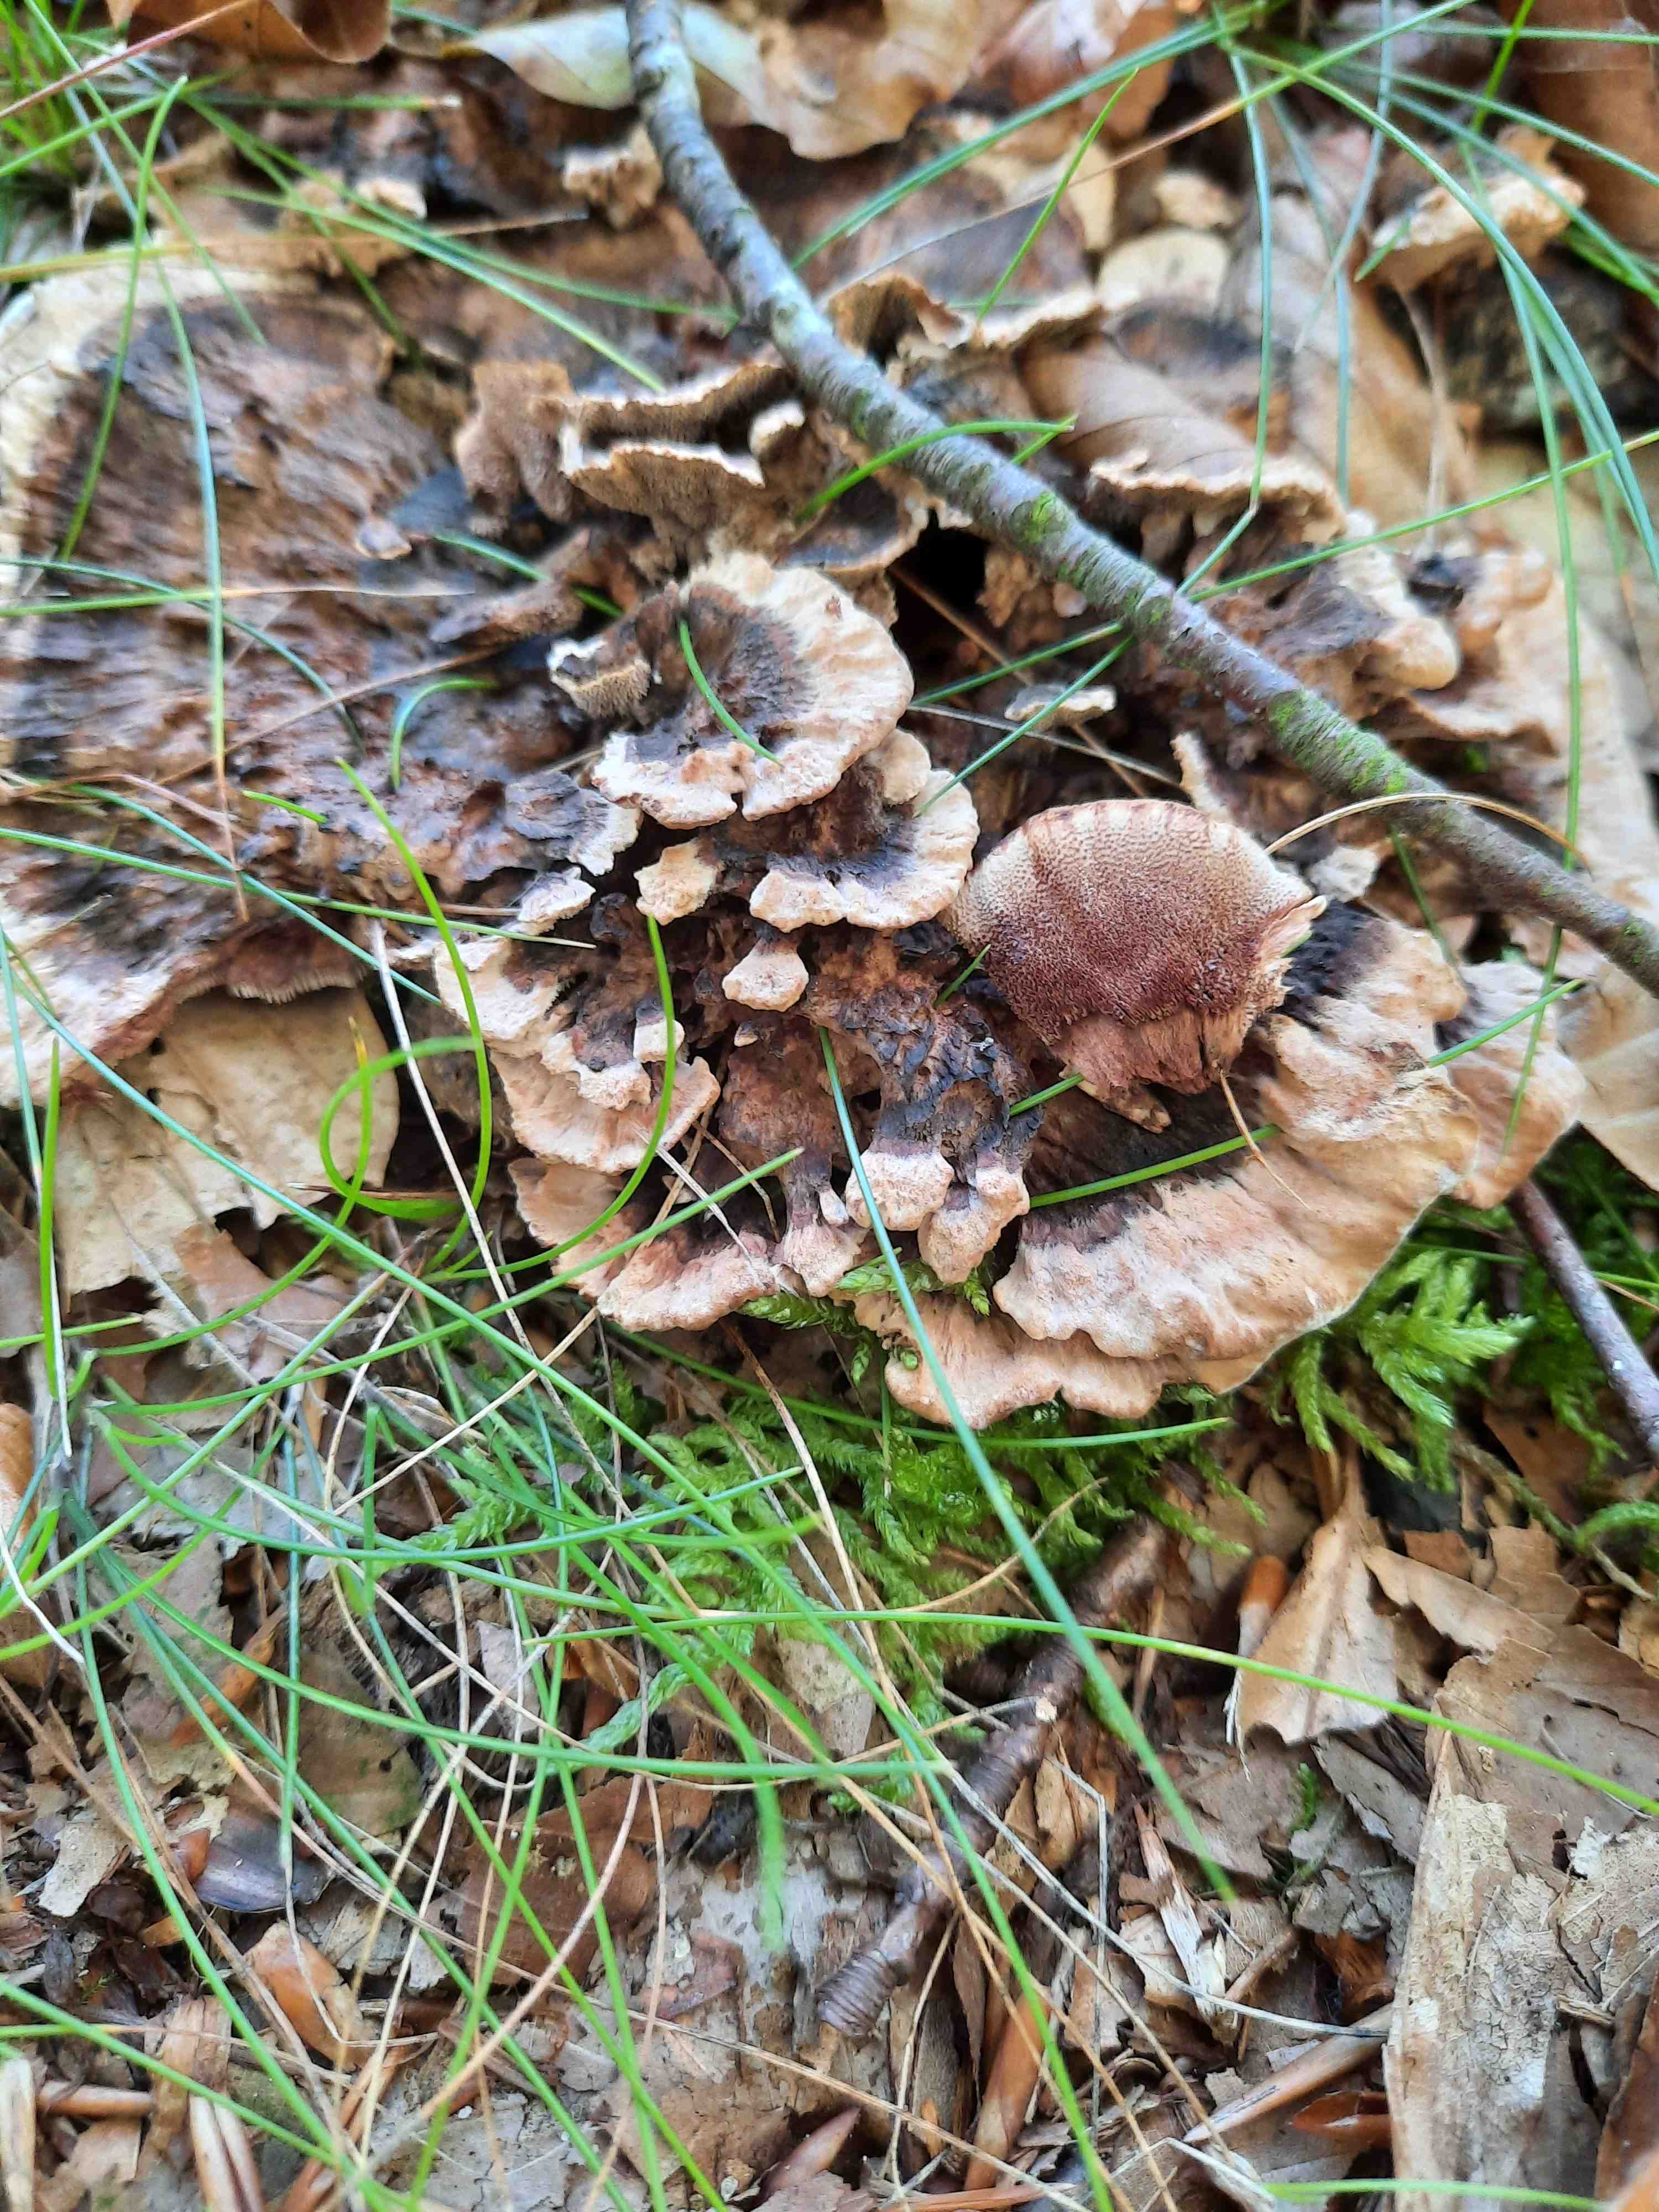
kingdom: Fungi
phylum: Basidiomycota
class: Agaricomycetes
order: Thelephorales
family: Bankeraceae
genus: Hydnellum
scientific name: Hydnellum concrescens
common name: Zoned tooth
